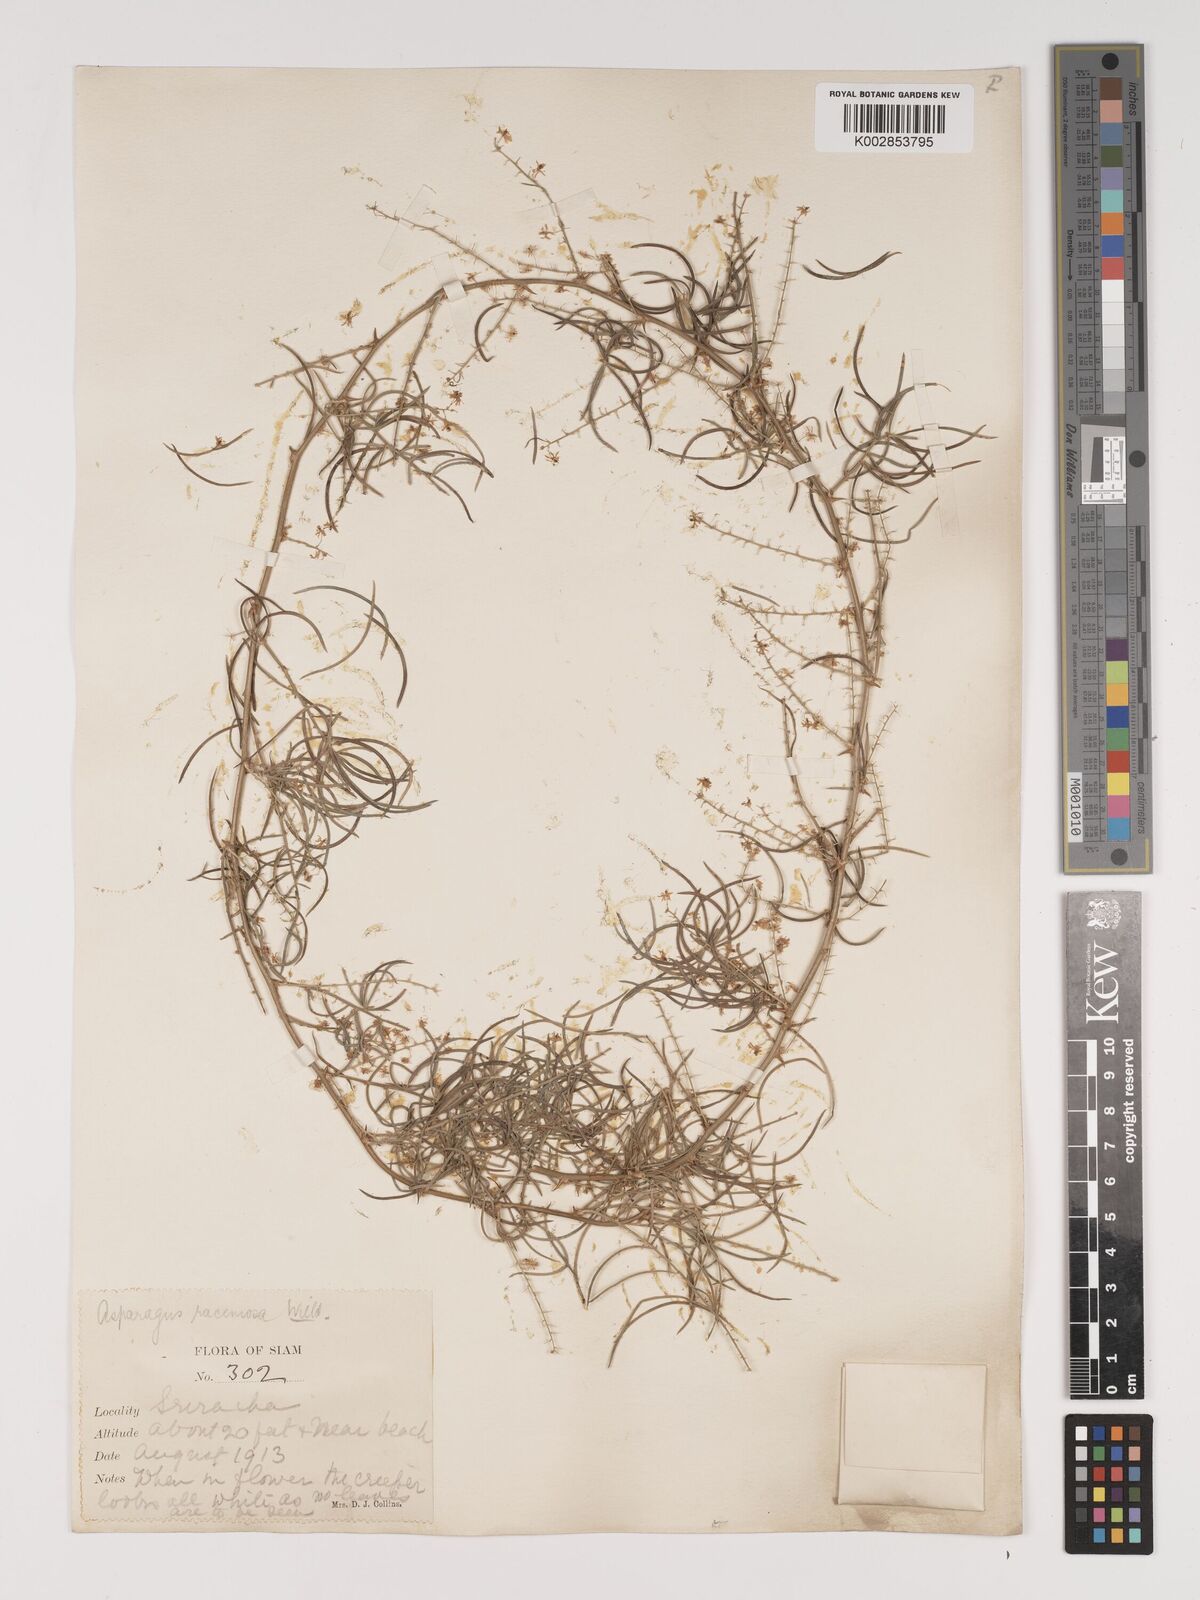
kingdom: Plantae
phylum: Tracheophyta
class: Liliopsida
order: Asparagales
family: Asparagaceae
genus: Asparagus
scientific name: Asparagus racemosus
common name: Asparagus-fern
